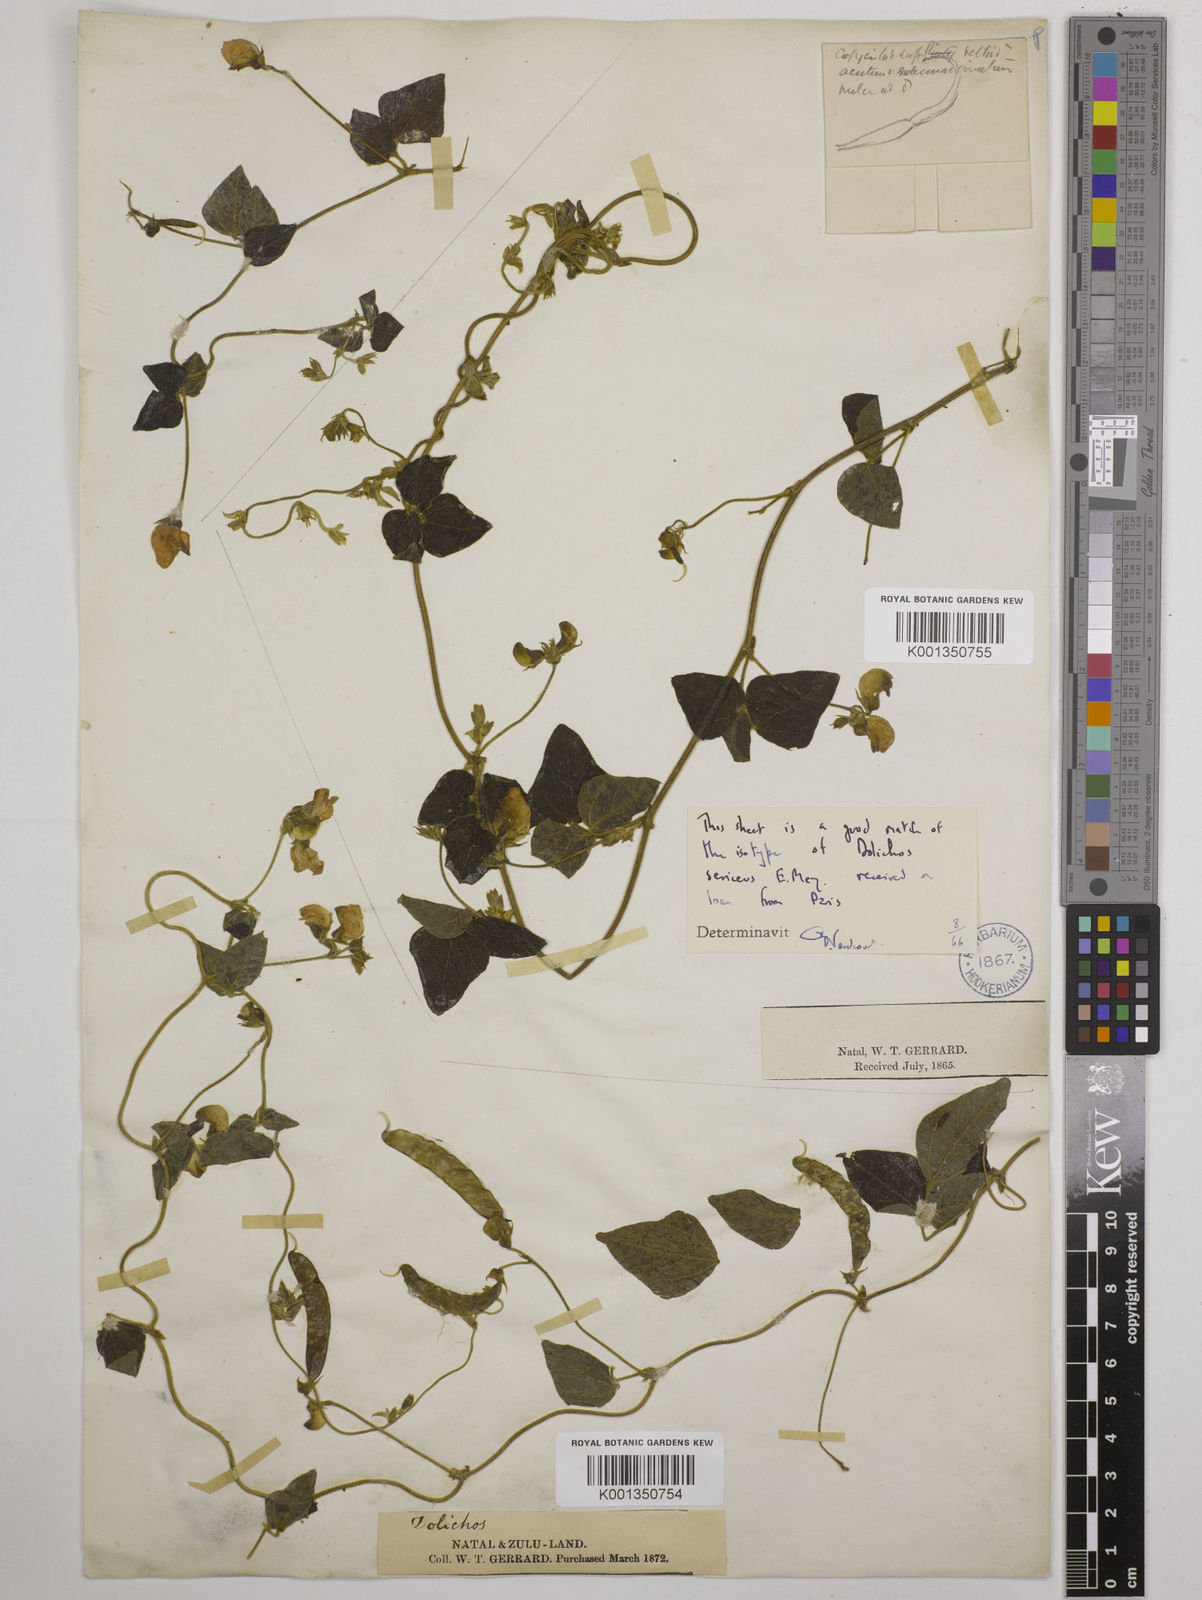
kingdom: Plantae
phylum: Tracheophyta
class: Magnoliopsida
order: Fabales
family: Fabaceae
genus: Dolichos
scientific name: Dolichos sericeus
